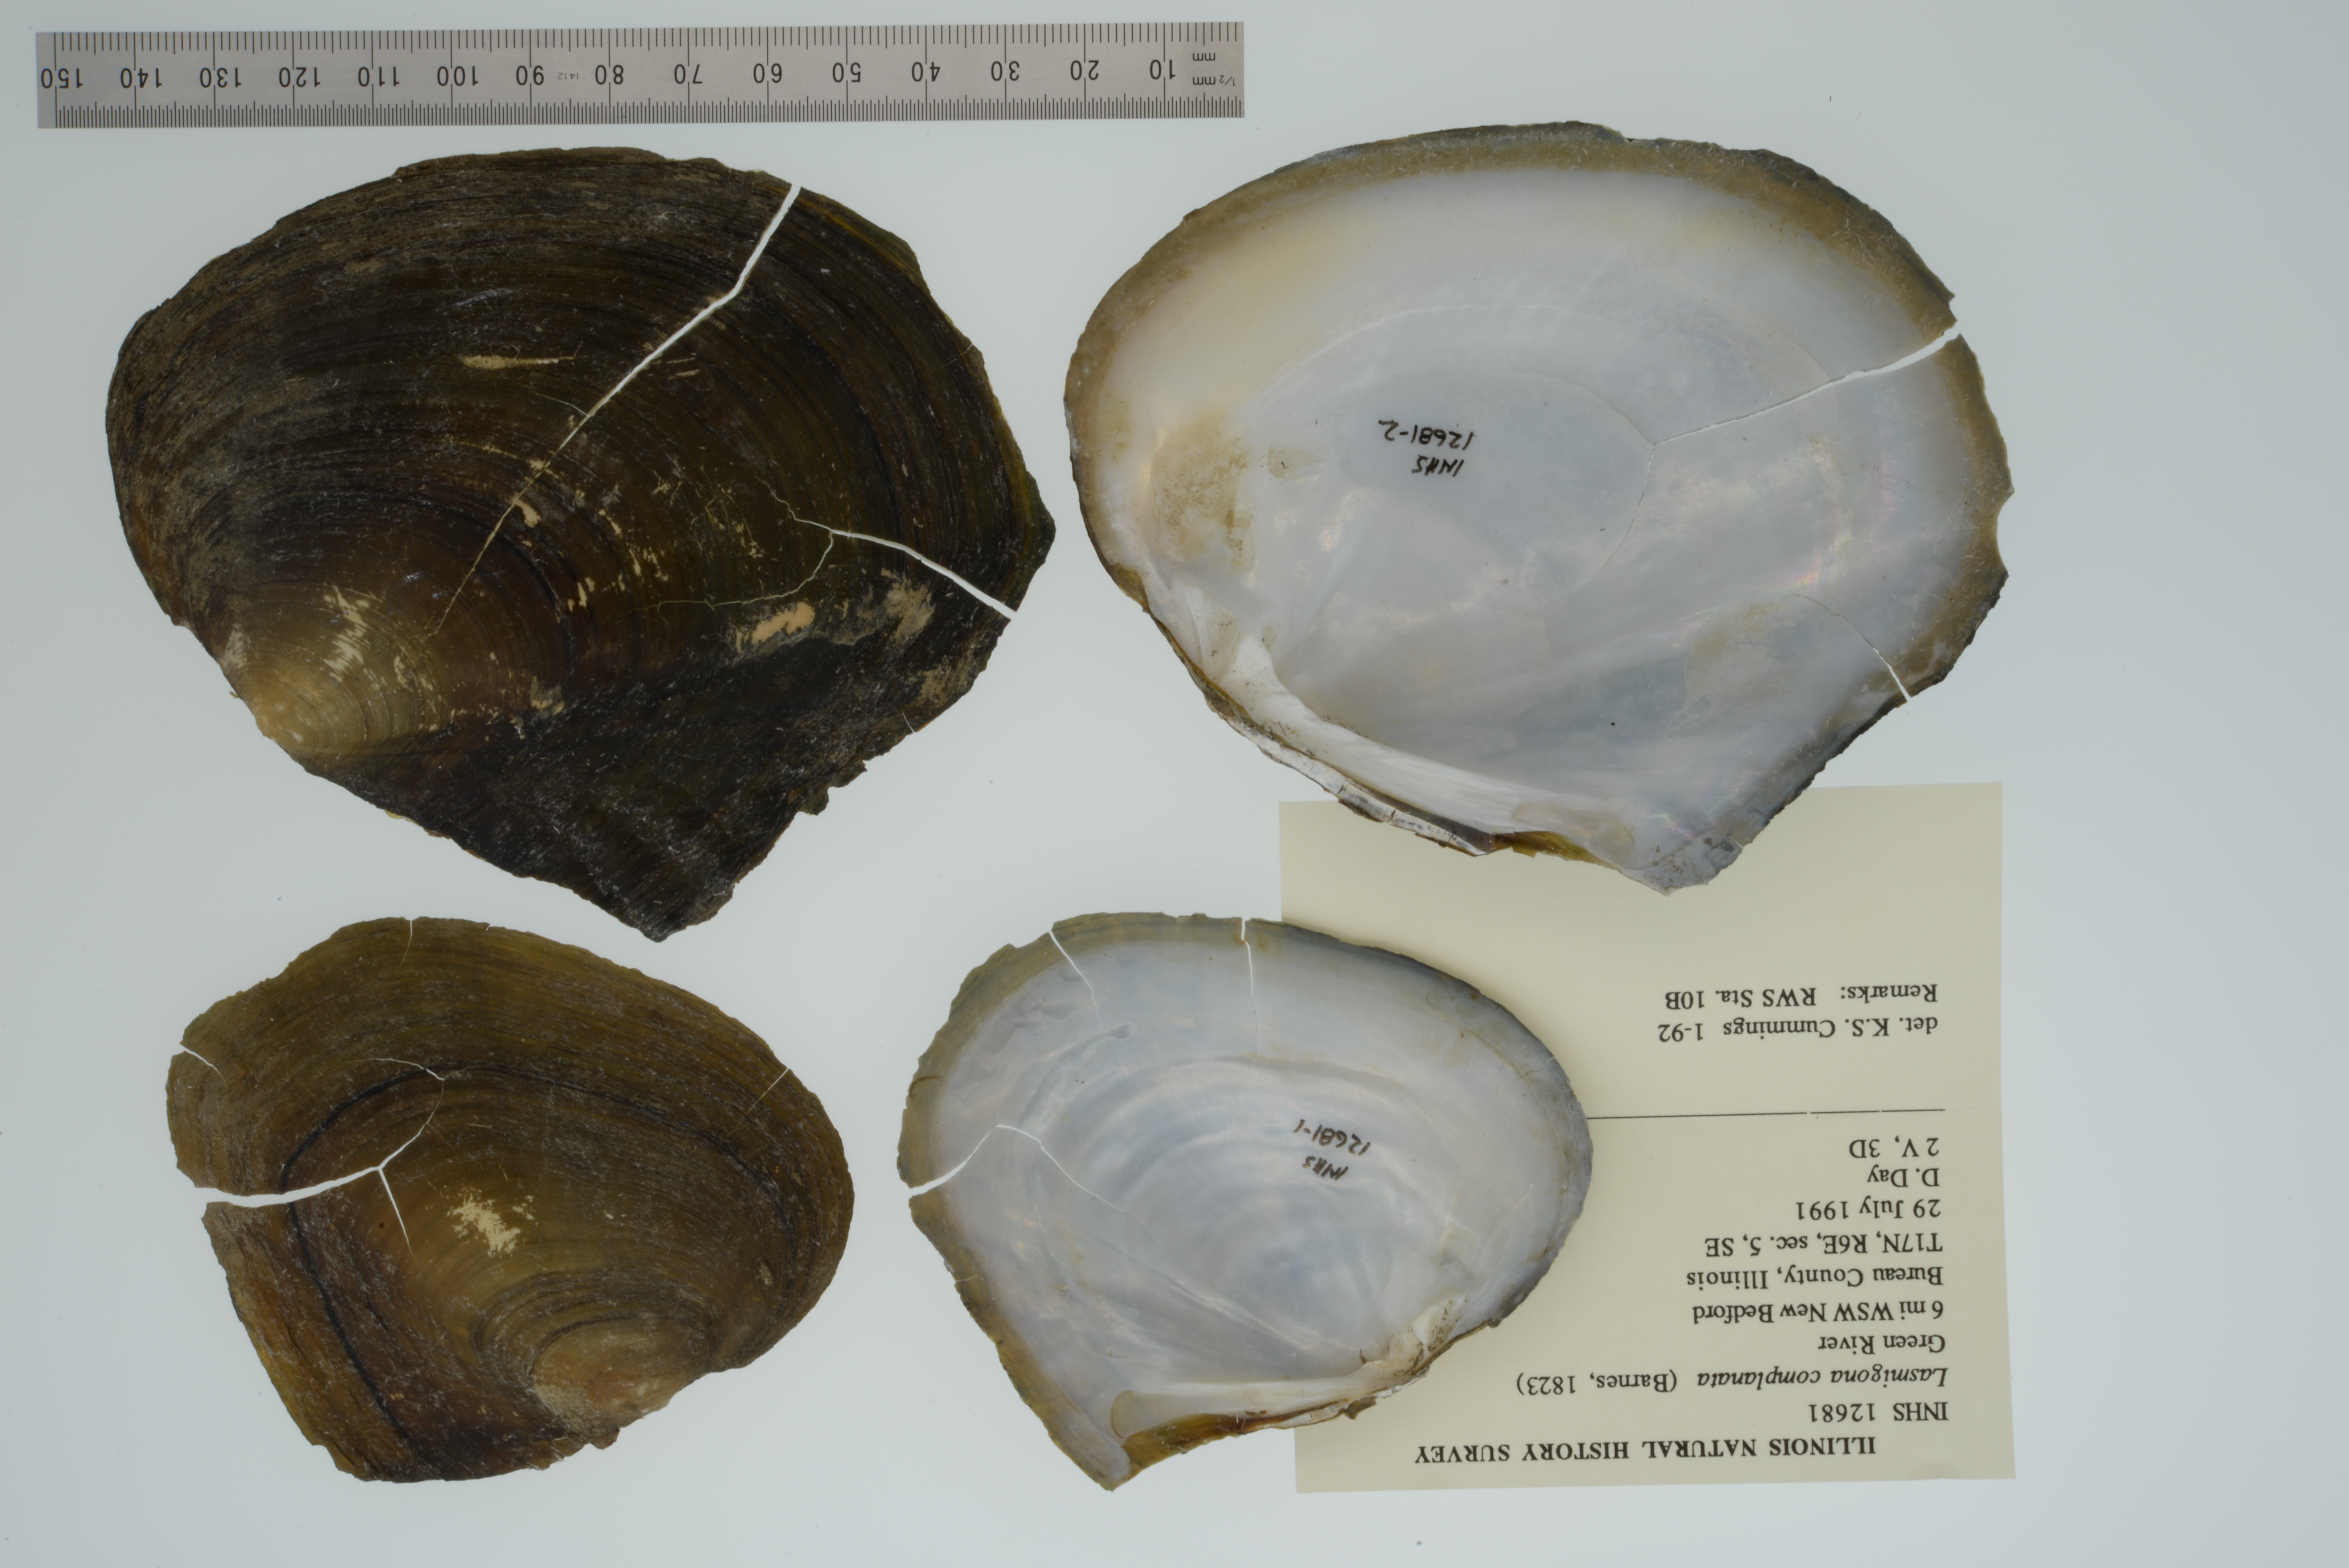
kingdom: Animalia
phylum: Mollusca
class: Bivalvia
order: Unionida
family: Unionidae
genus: Lasmigona
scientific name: Lasmigona complanata
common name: White heelsplitter
